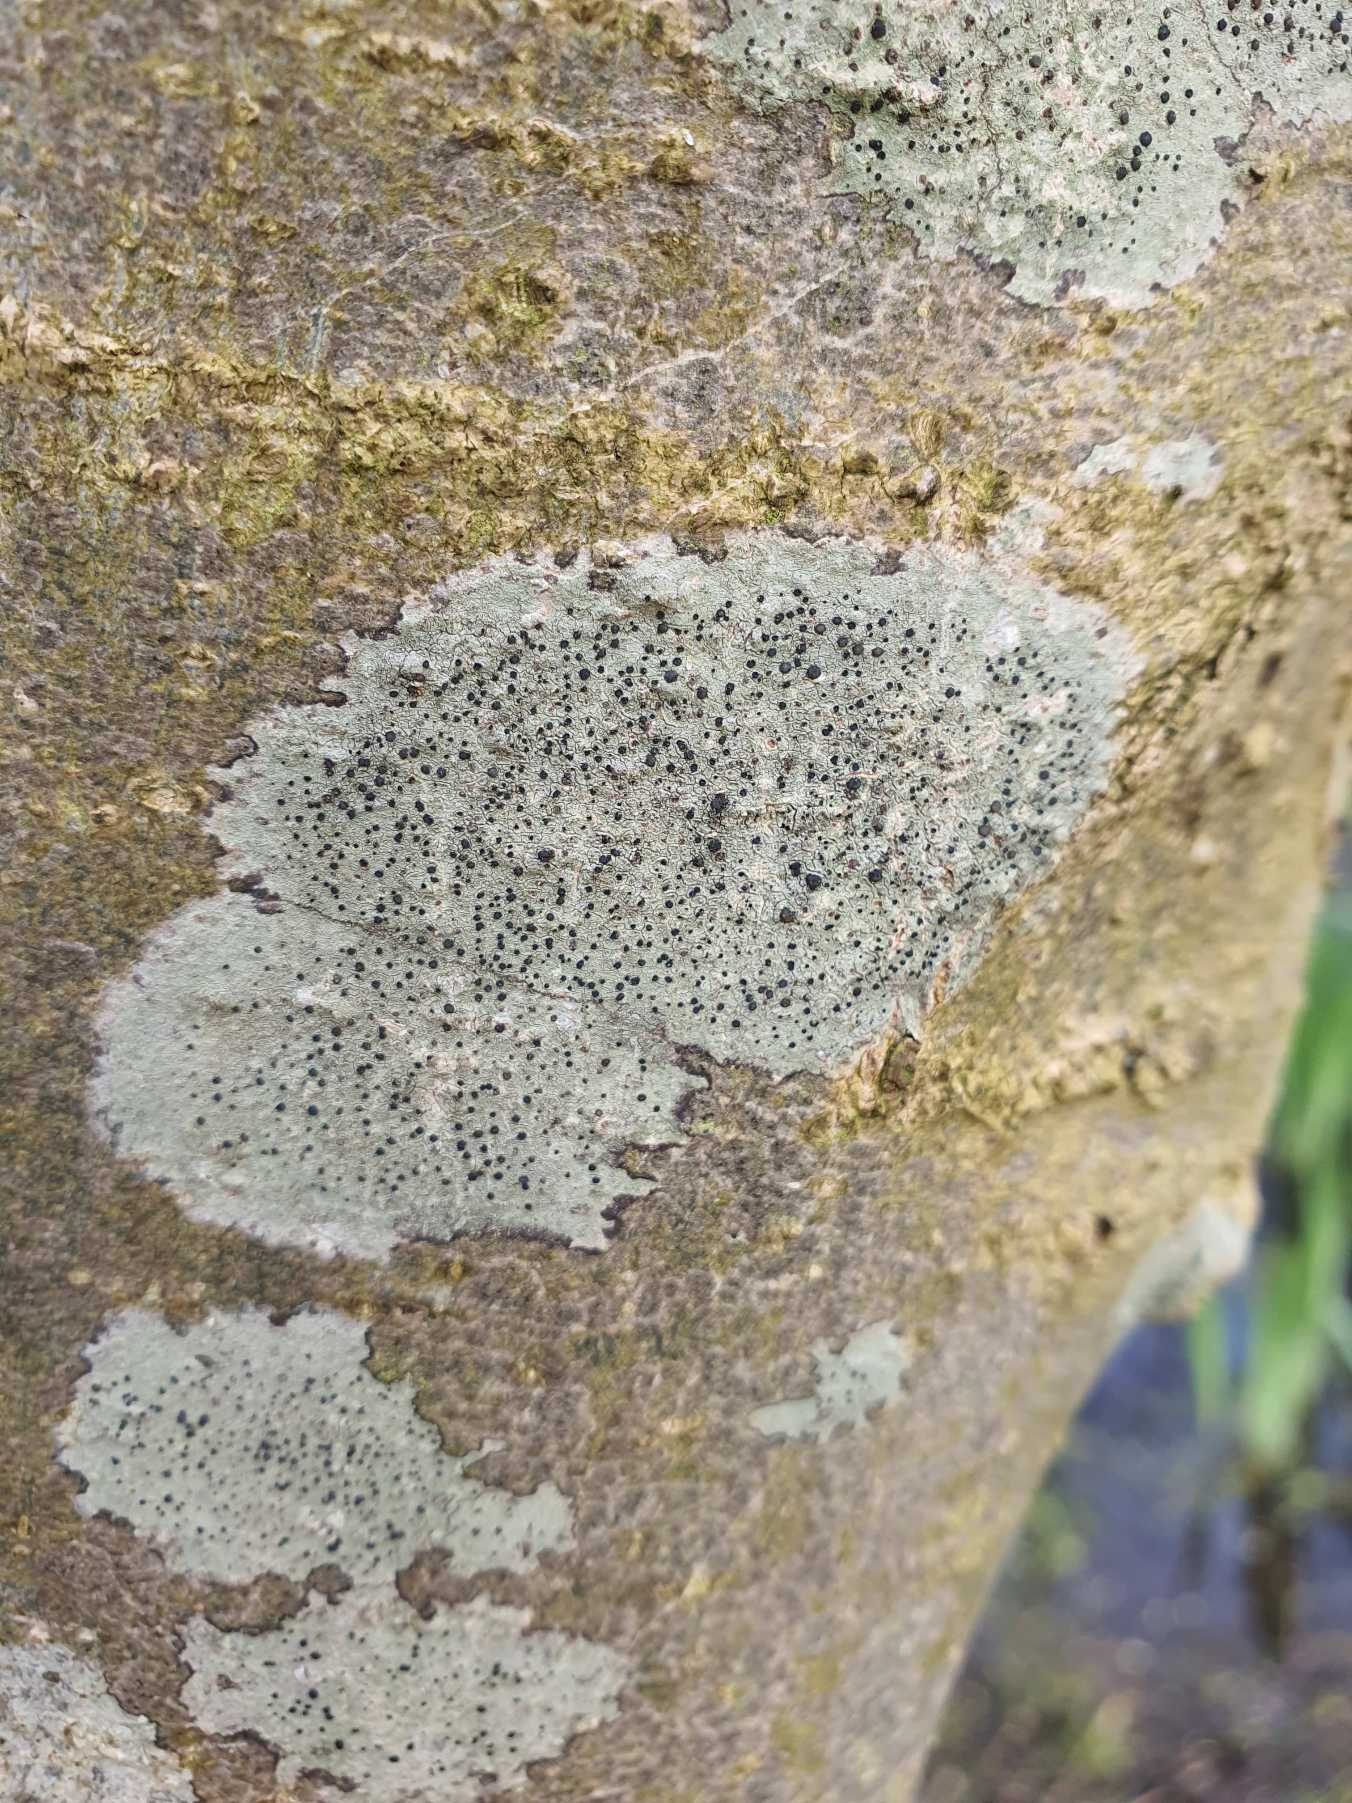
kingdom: Fungi
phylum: Ascomycota
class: Lecanoromycetes
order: Lecanorales
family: Lecanoraceae
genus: Lecidella
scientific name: Lecidella elaeochroma
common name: Grågrøn skivelav
